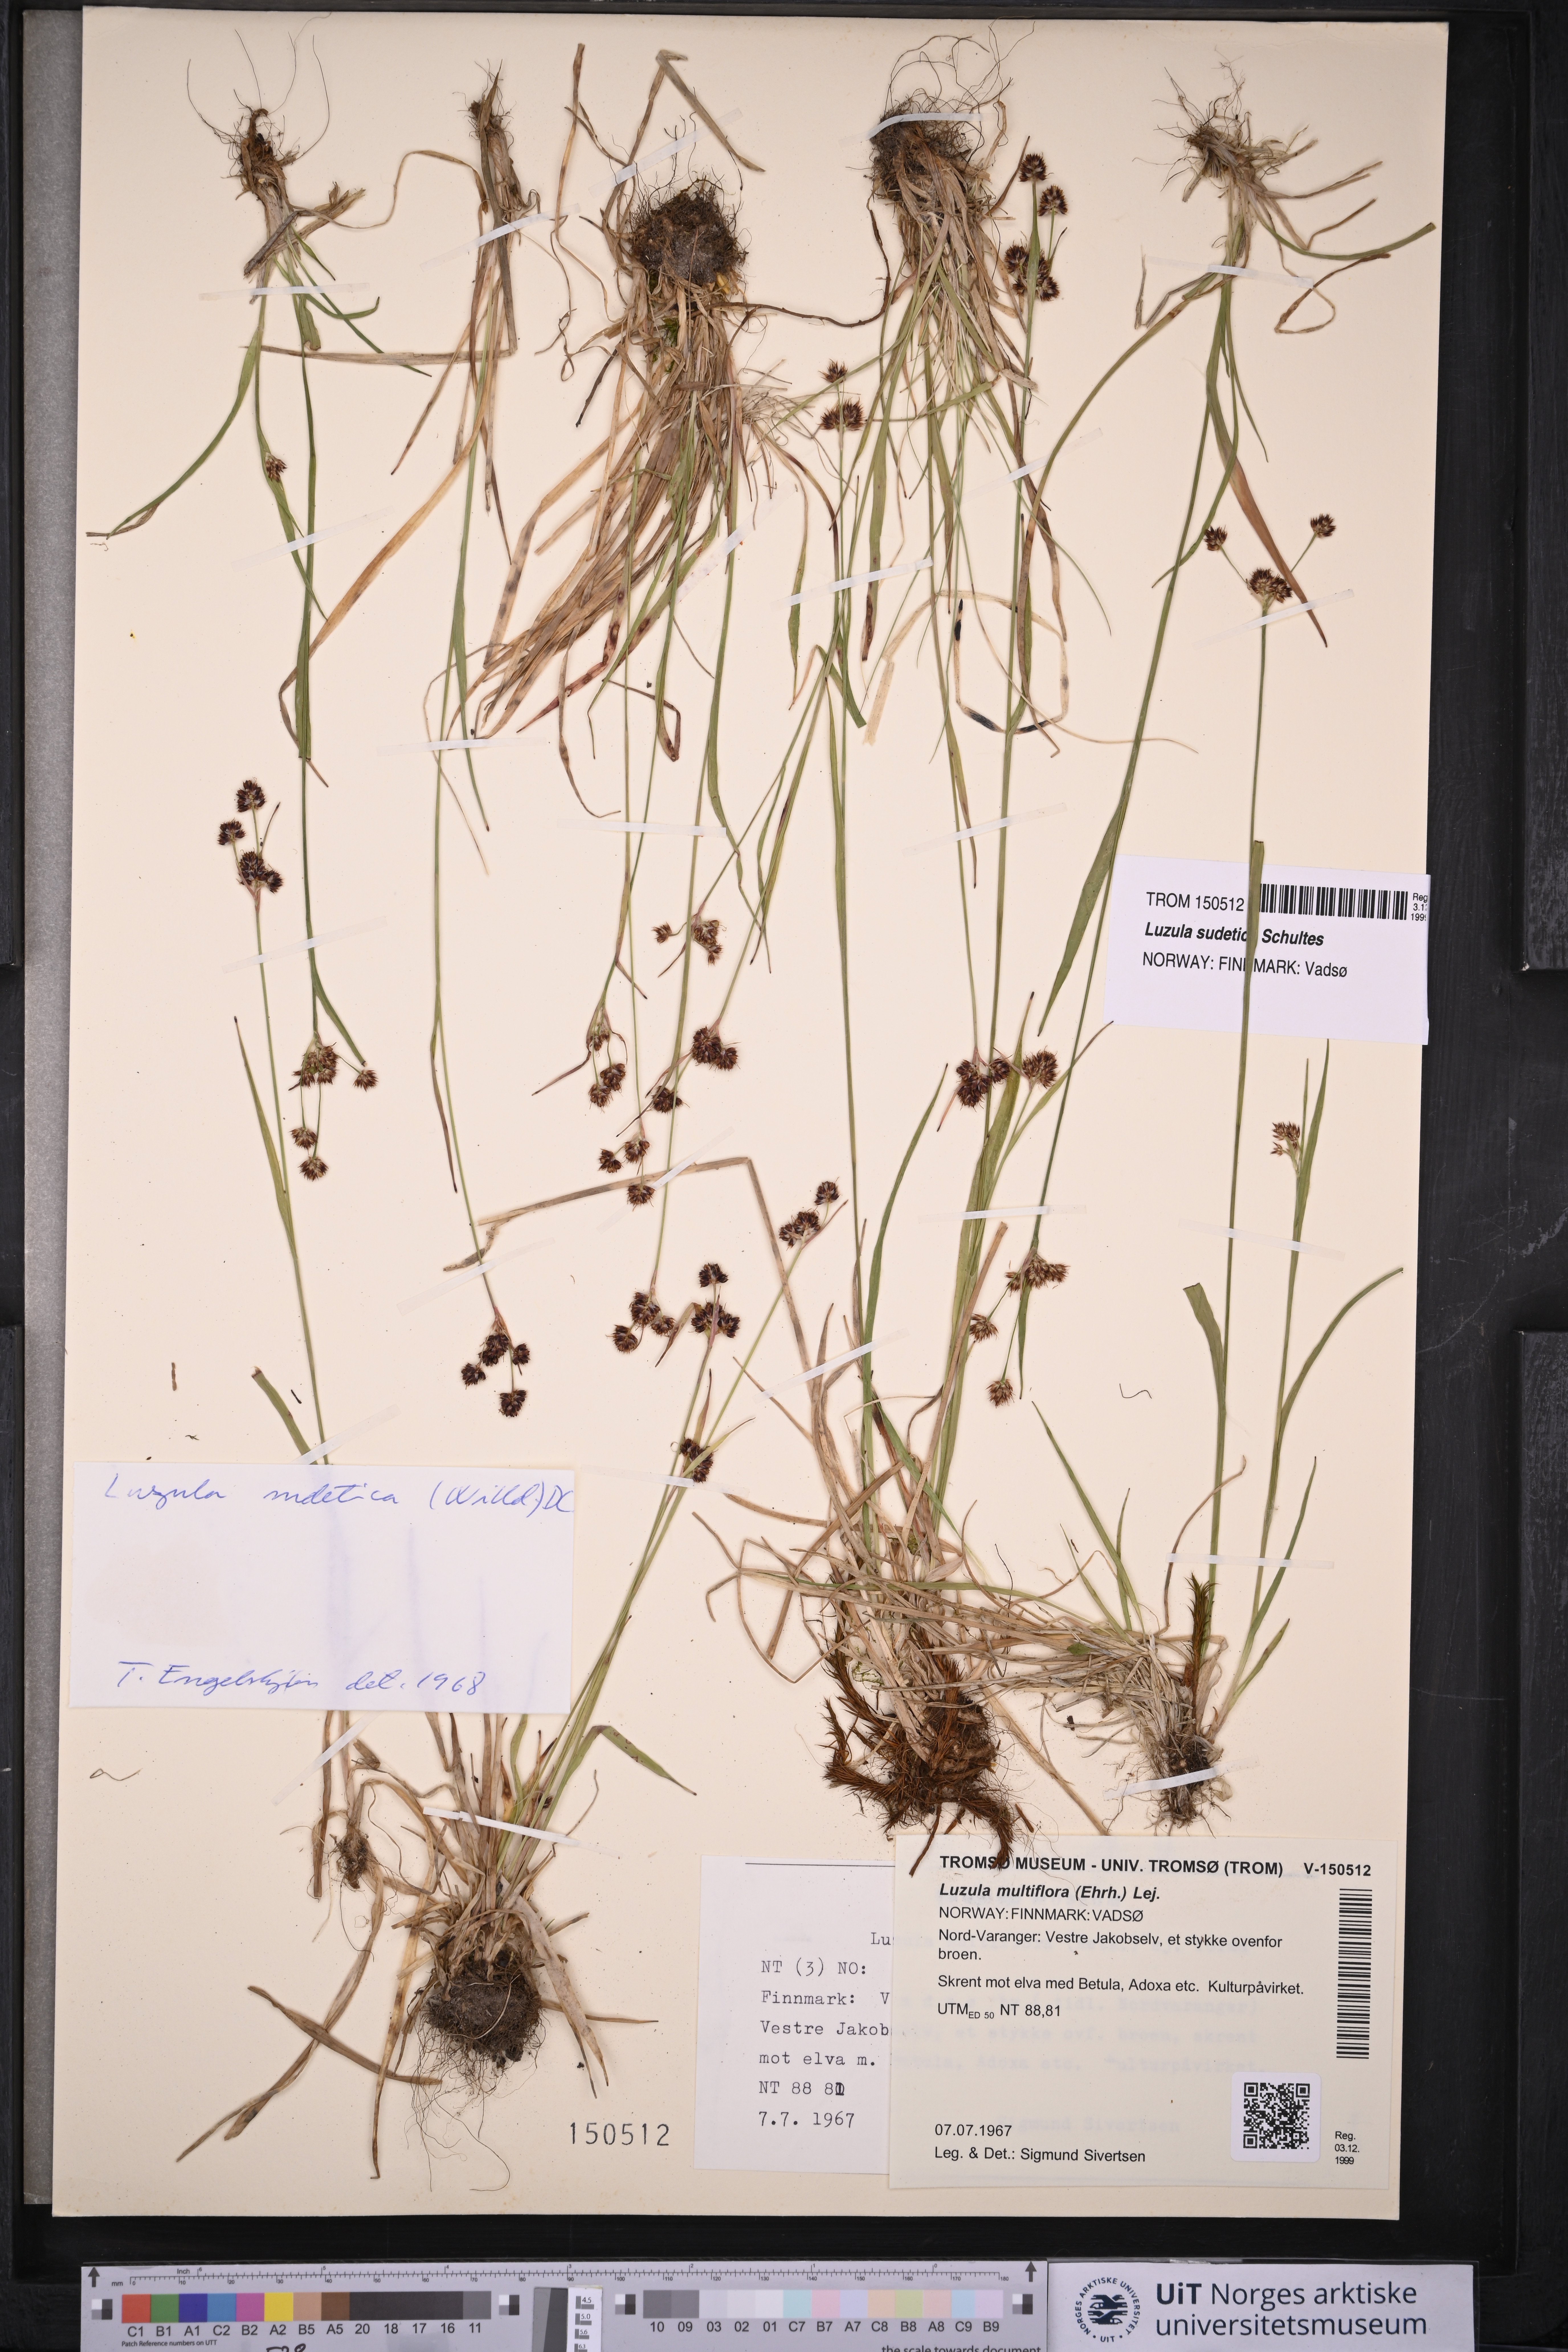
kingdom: Plantae
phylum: Tracheophyta
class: Liliopsida
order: Poales
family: Juncaceae
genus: Luzula
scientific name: Luzula sudetica
